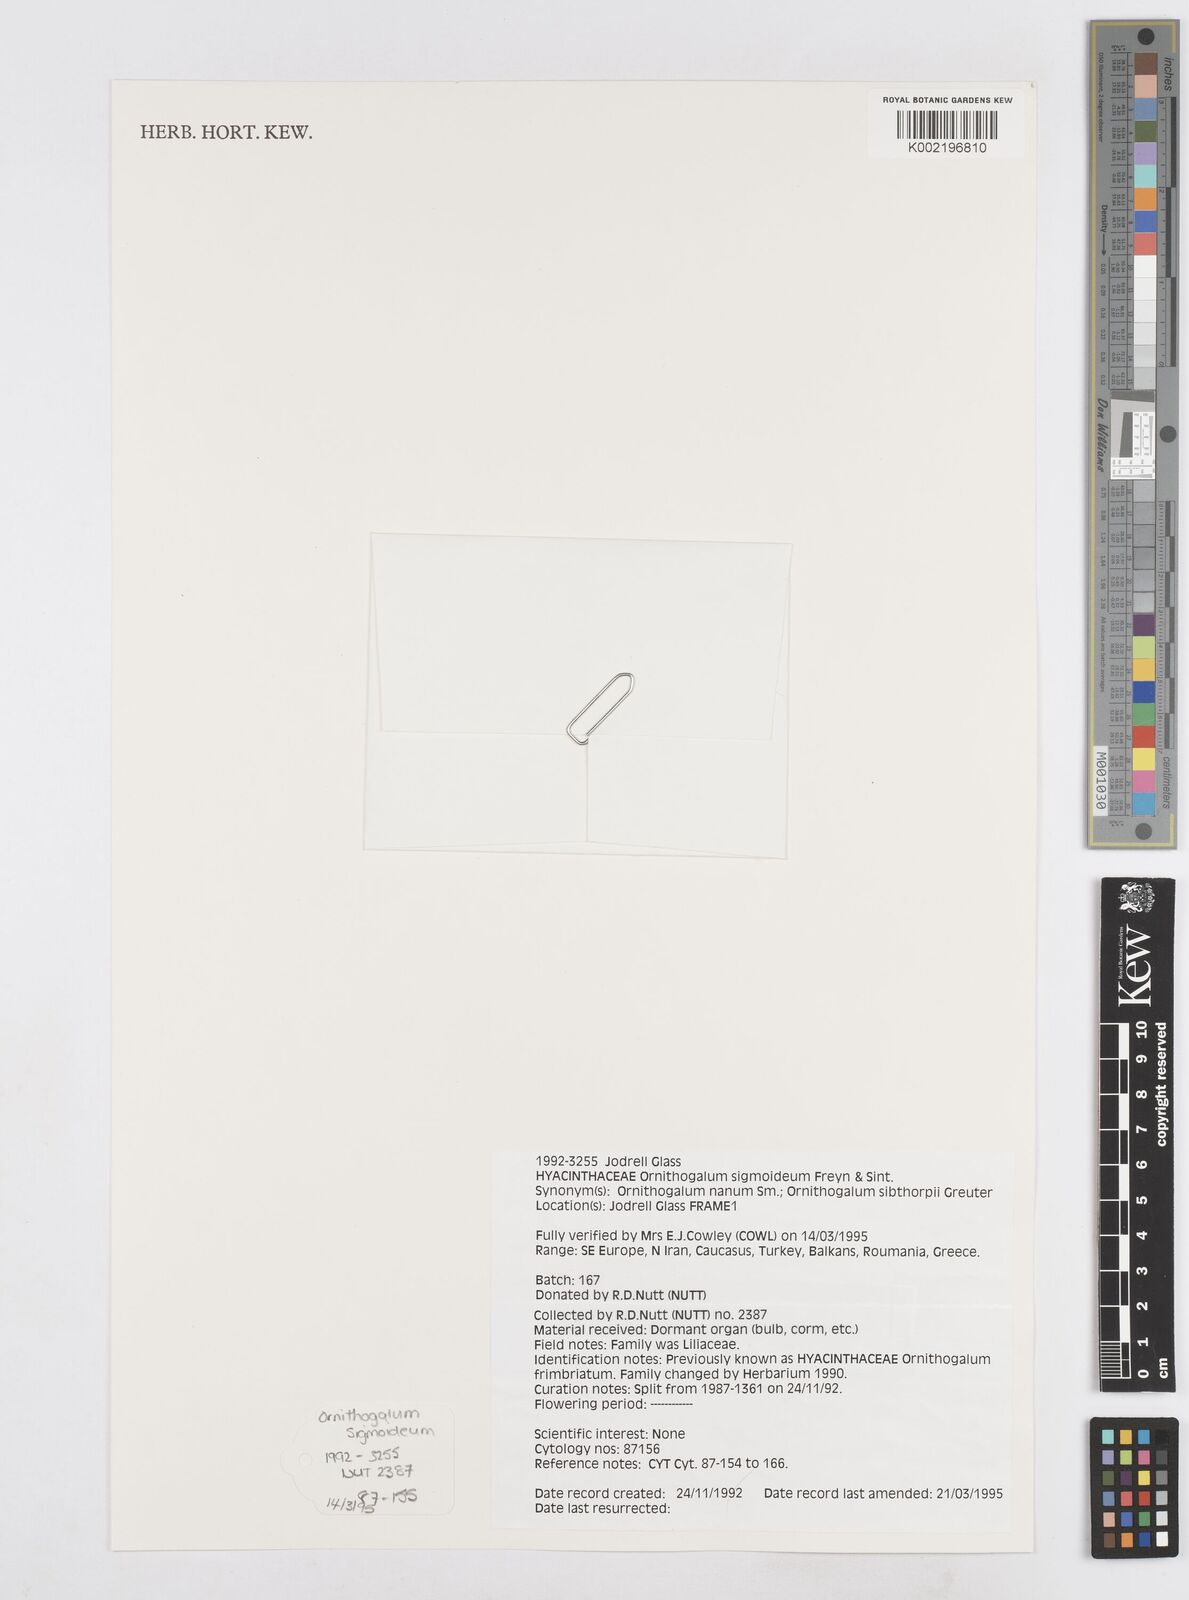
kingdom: Plantae
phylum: Tracheophyta
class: Liliopsida
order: Asparagales
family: Asparagaceae
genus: Ornithogalum
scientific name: Ornithogalum sigmoideum
